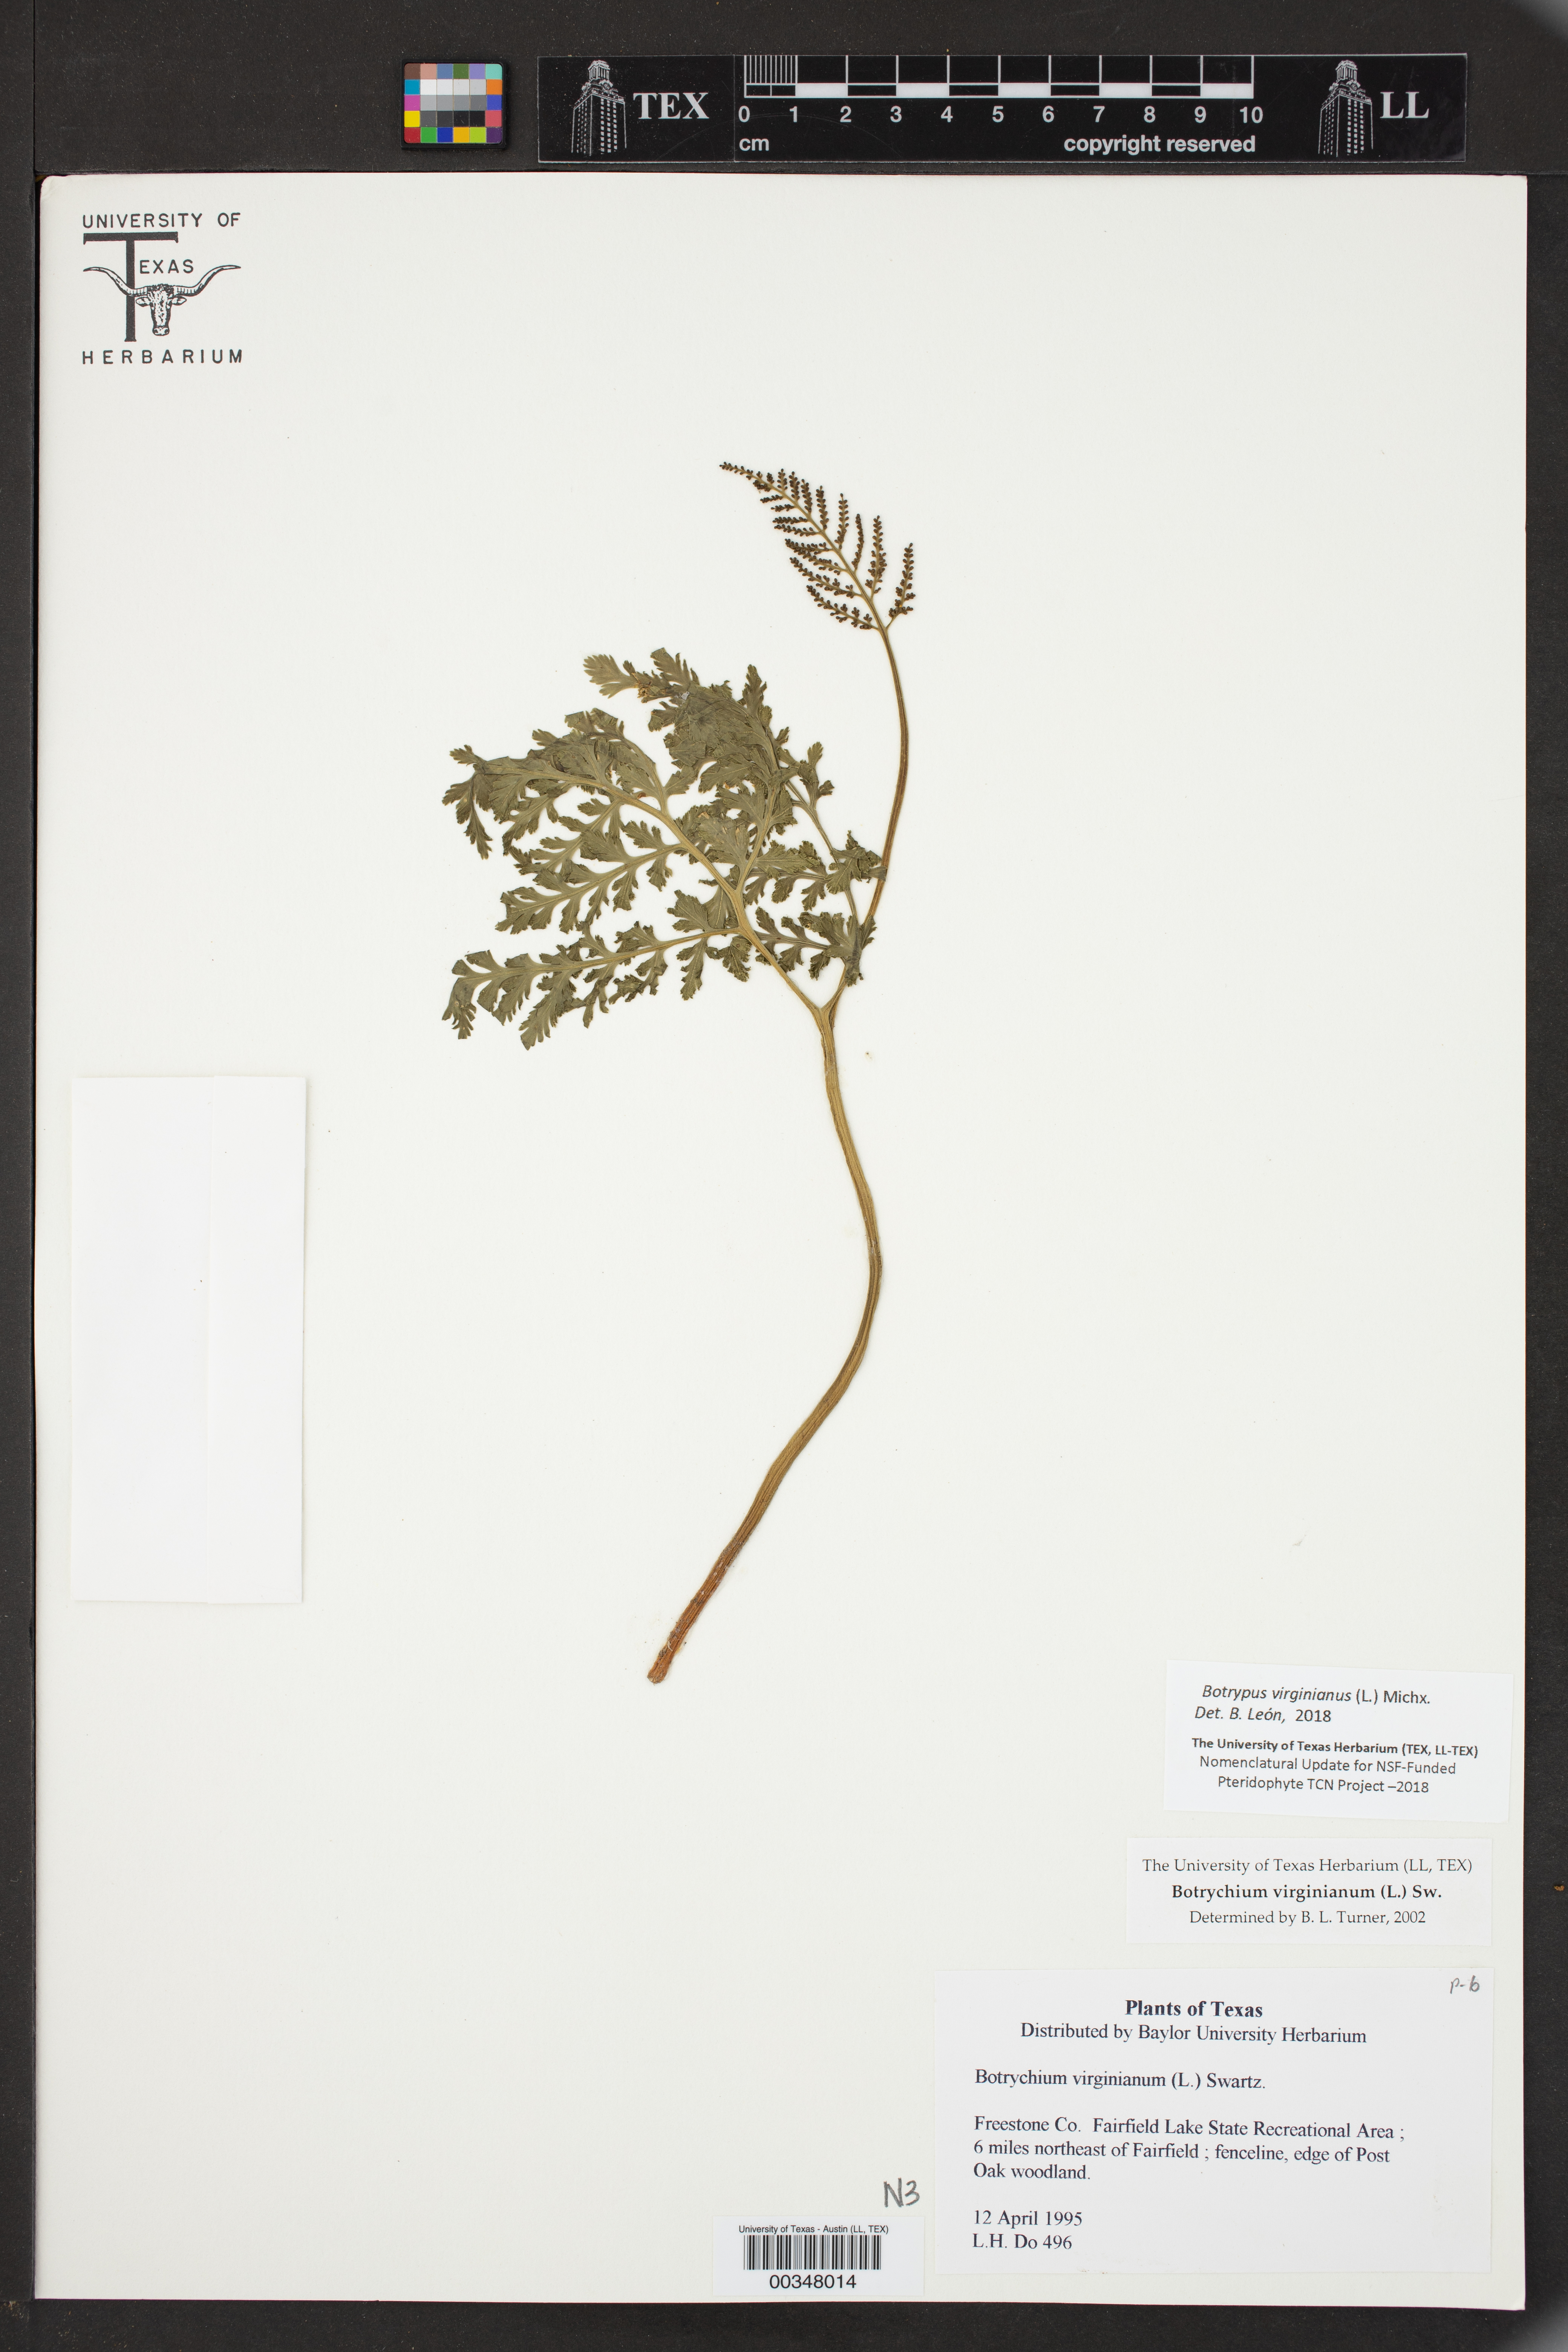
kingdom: Plantae
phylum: Tracheophyta
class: Polypodiopsida
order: Ophioglossales
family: Ophioglossaceae
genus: Botrychium
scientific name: Botrychium virginianum
